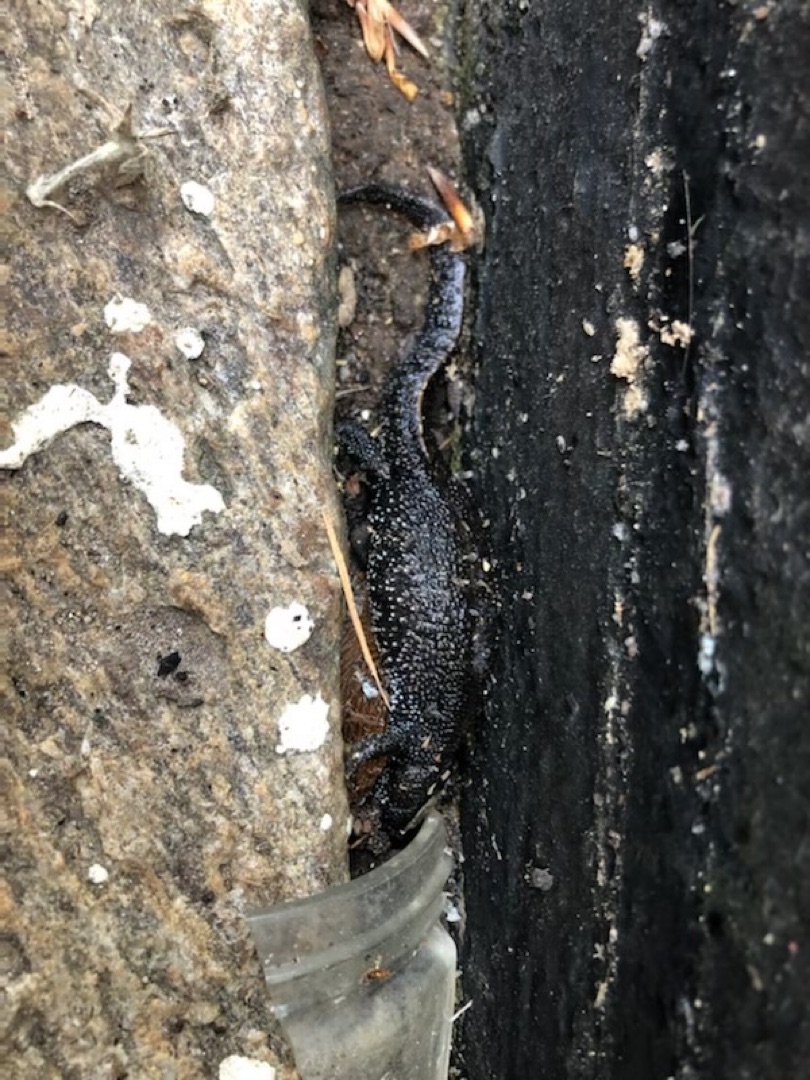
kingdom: Animalia
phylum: Chordata
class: Amphibia
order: Caudata
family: Salamandridae
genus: Triturus
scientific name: Triturus cristatus
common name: Stor vandsalamander
